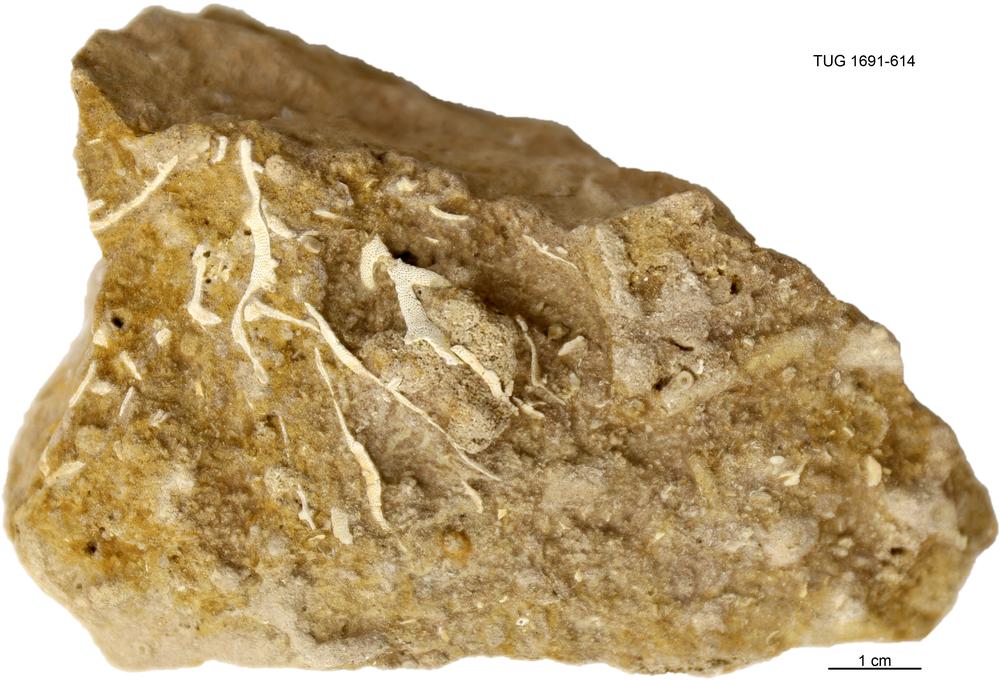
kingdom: Animalia
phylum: Bryozoa
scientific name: Bryozoa
